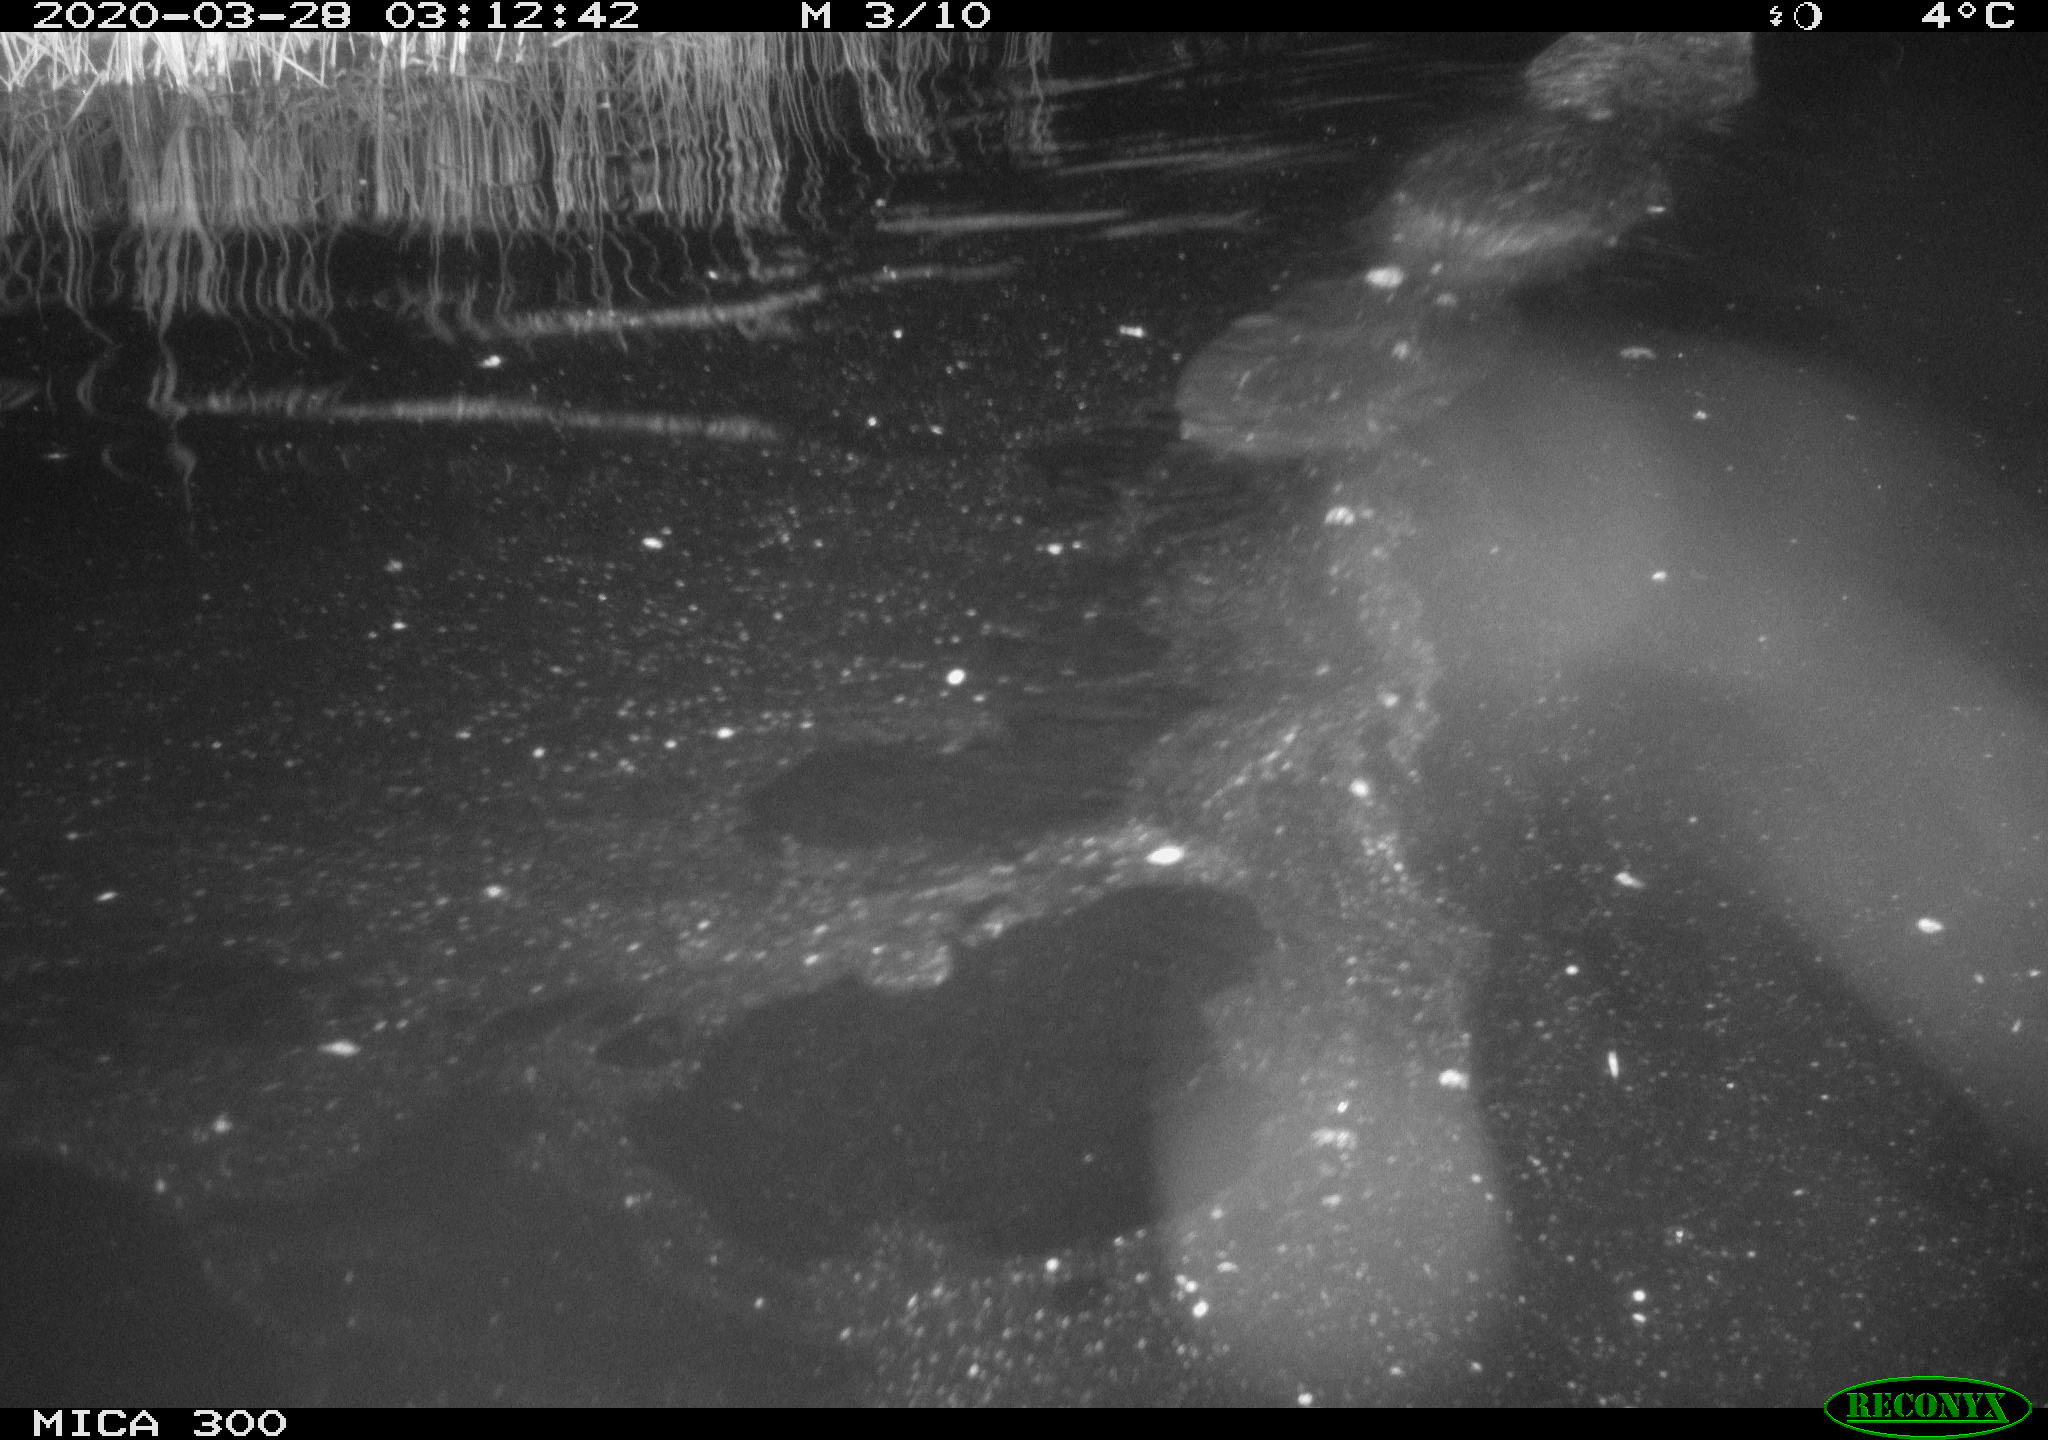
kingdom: Animalia
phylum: Chordata
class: Mammalia
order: Rodentia
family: Castoridae
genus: Castor
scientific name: Castor fiber
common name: Eurasian beaver
